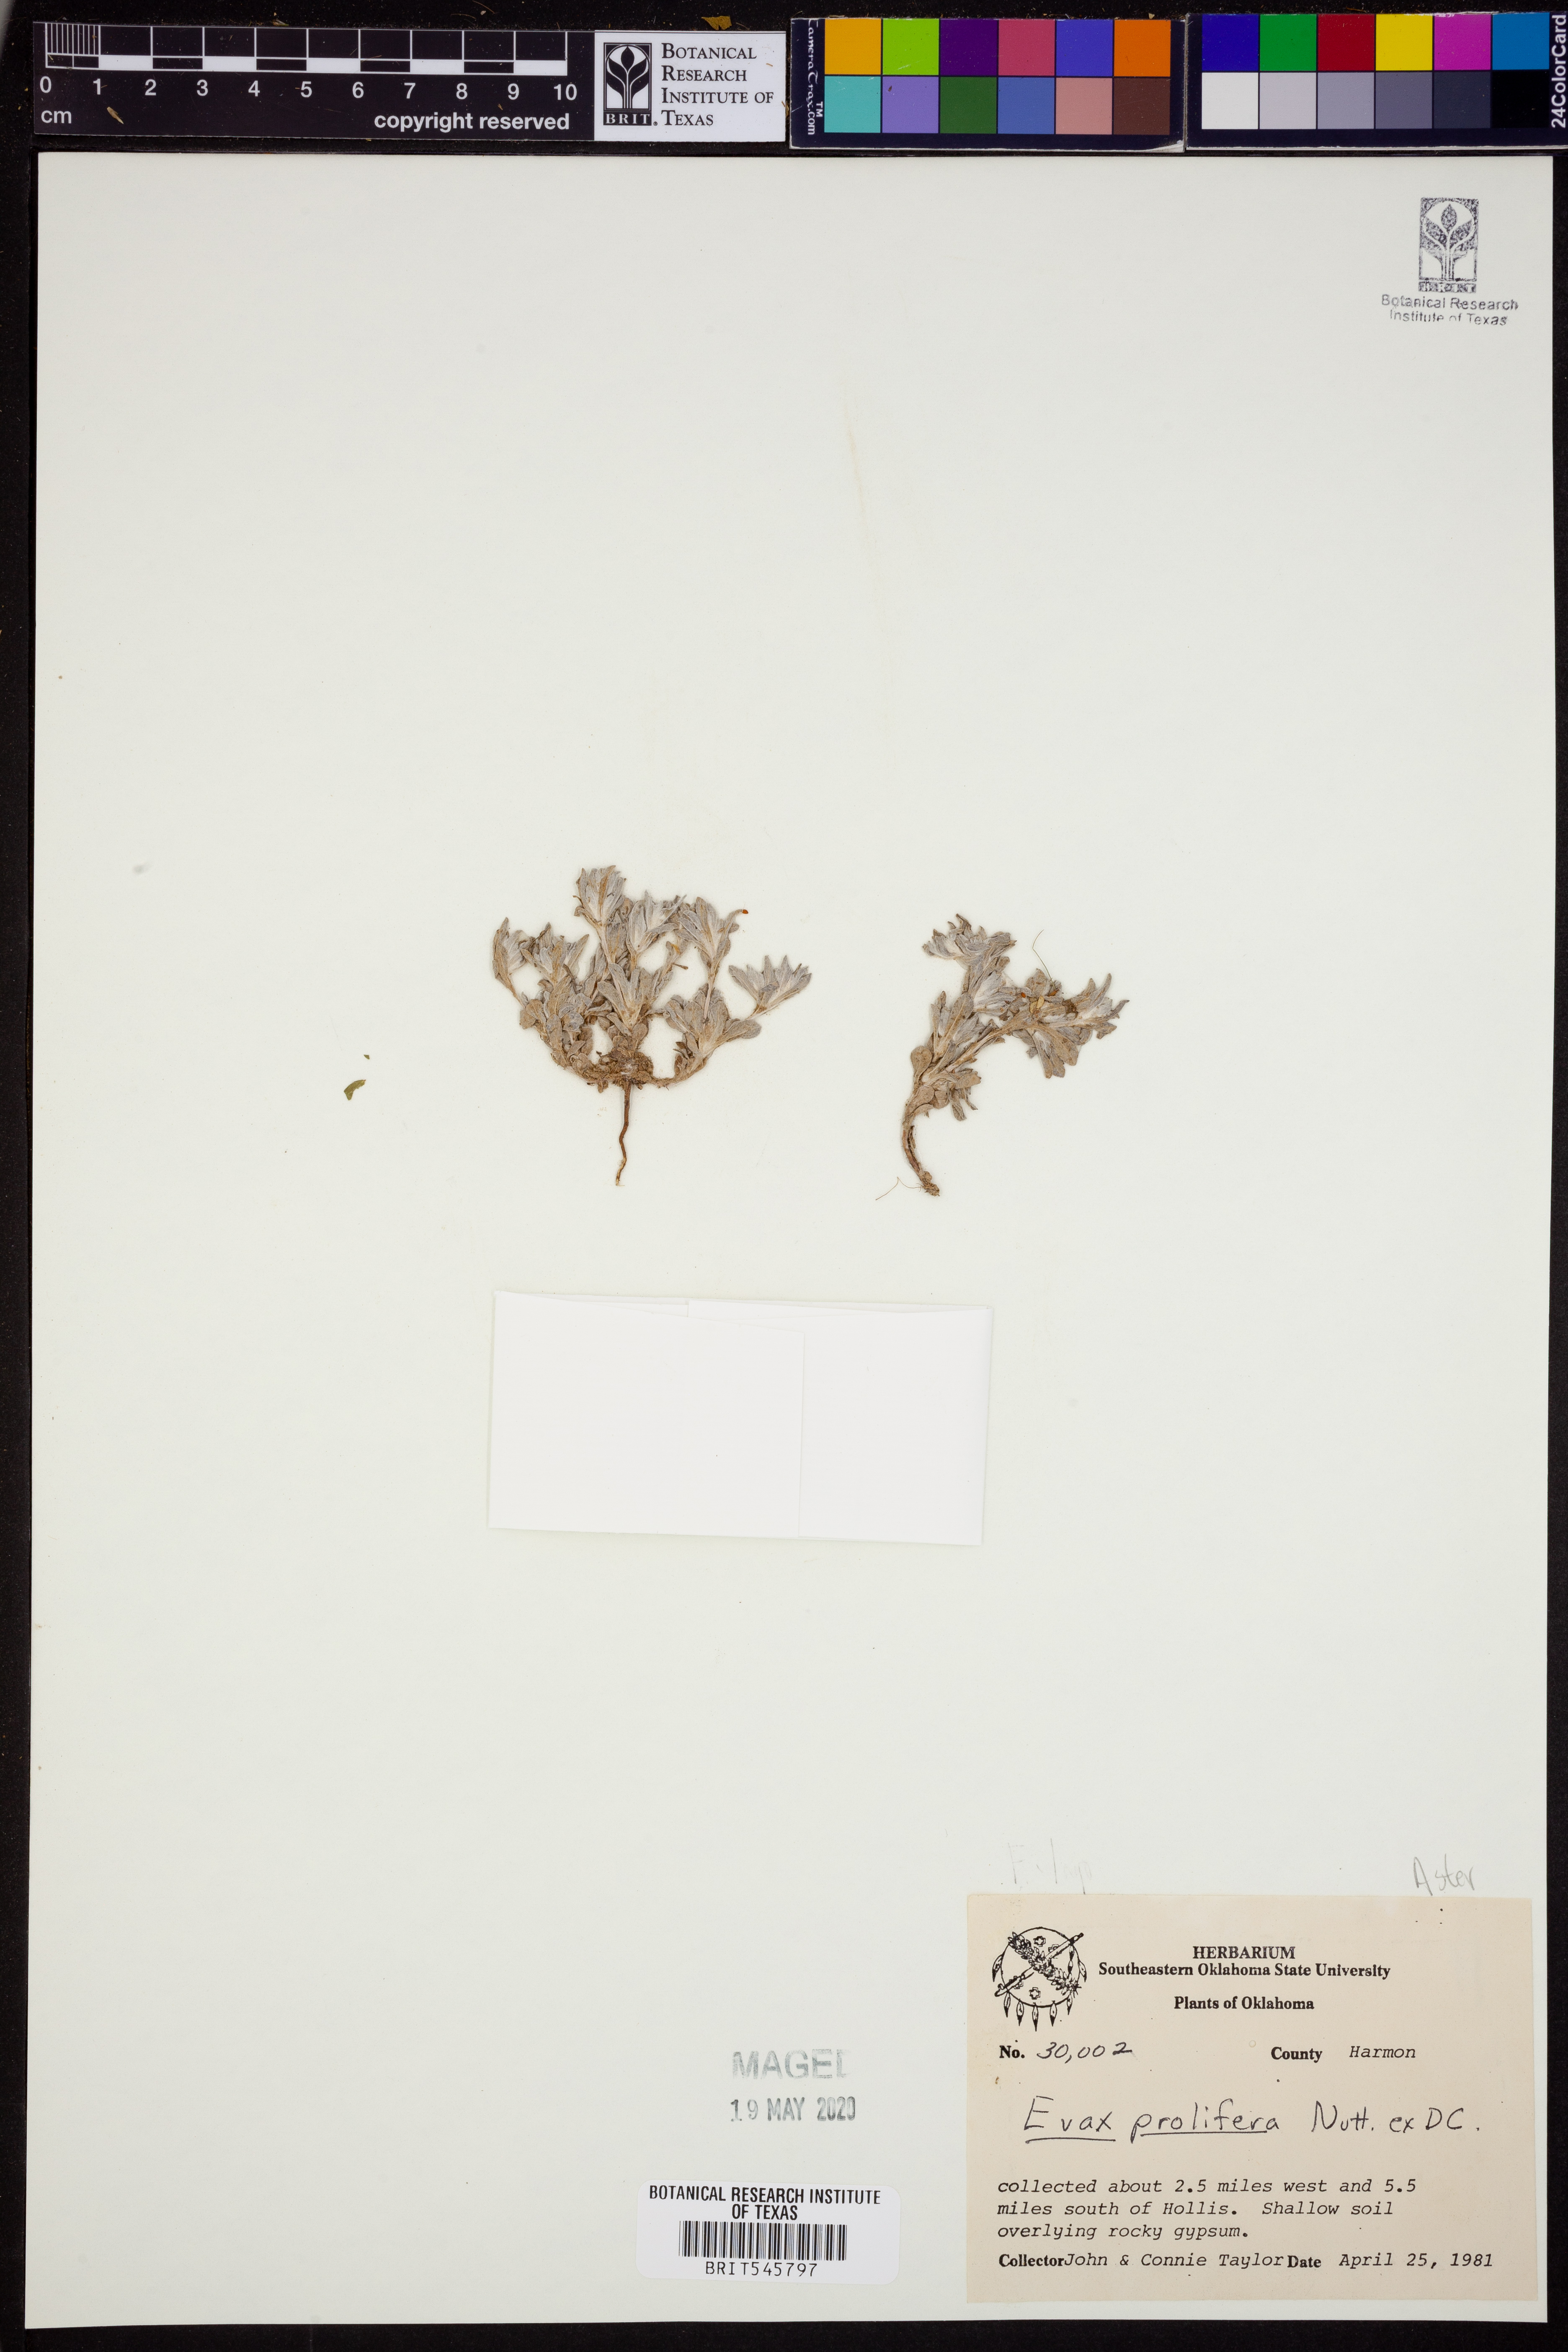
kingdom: Plantae
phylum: Tracheophyta
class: Magnoliopsida
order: Asterales
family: Asteraceae
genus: Diaperia
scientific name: Diaperia prolifera
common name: Big-head rabbit-tobacco
